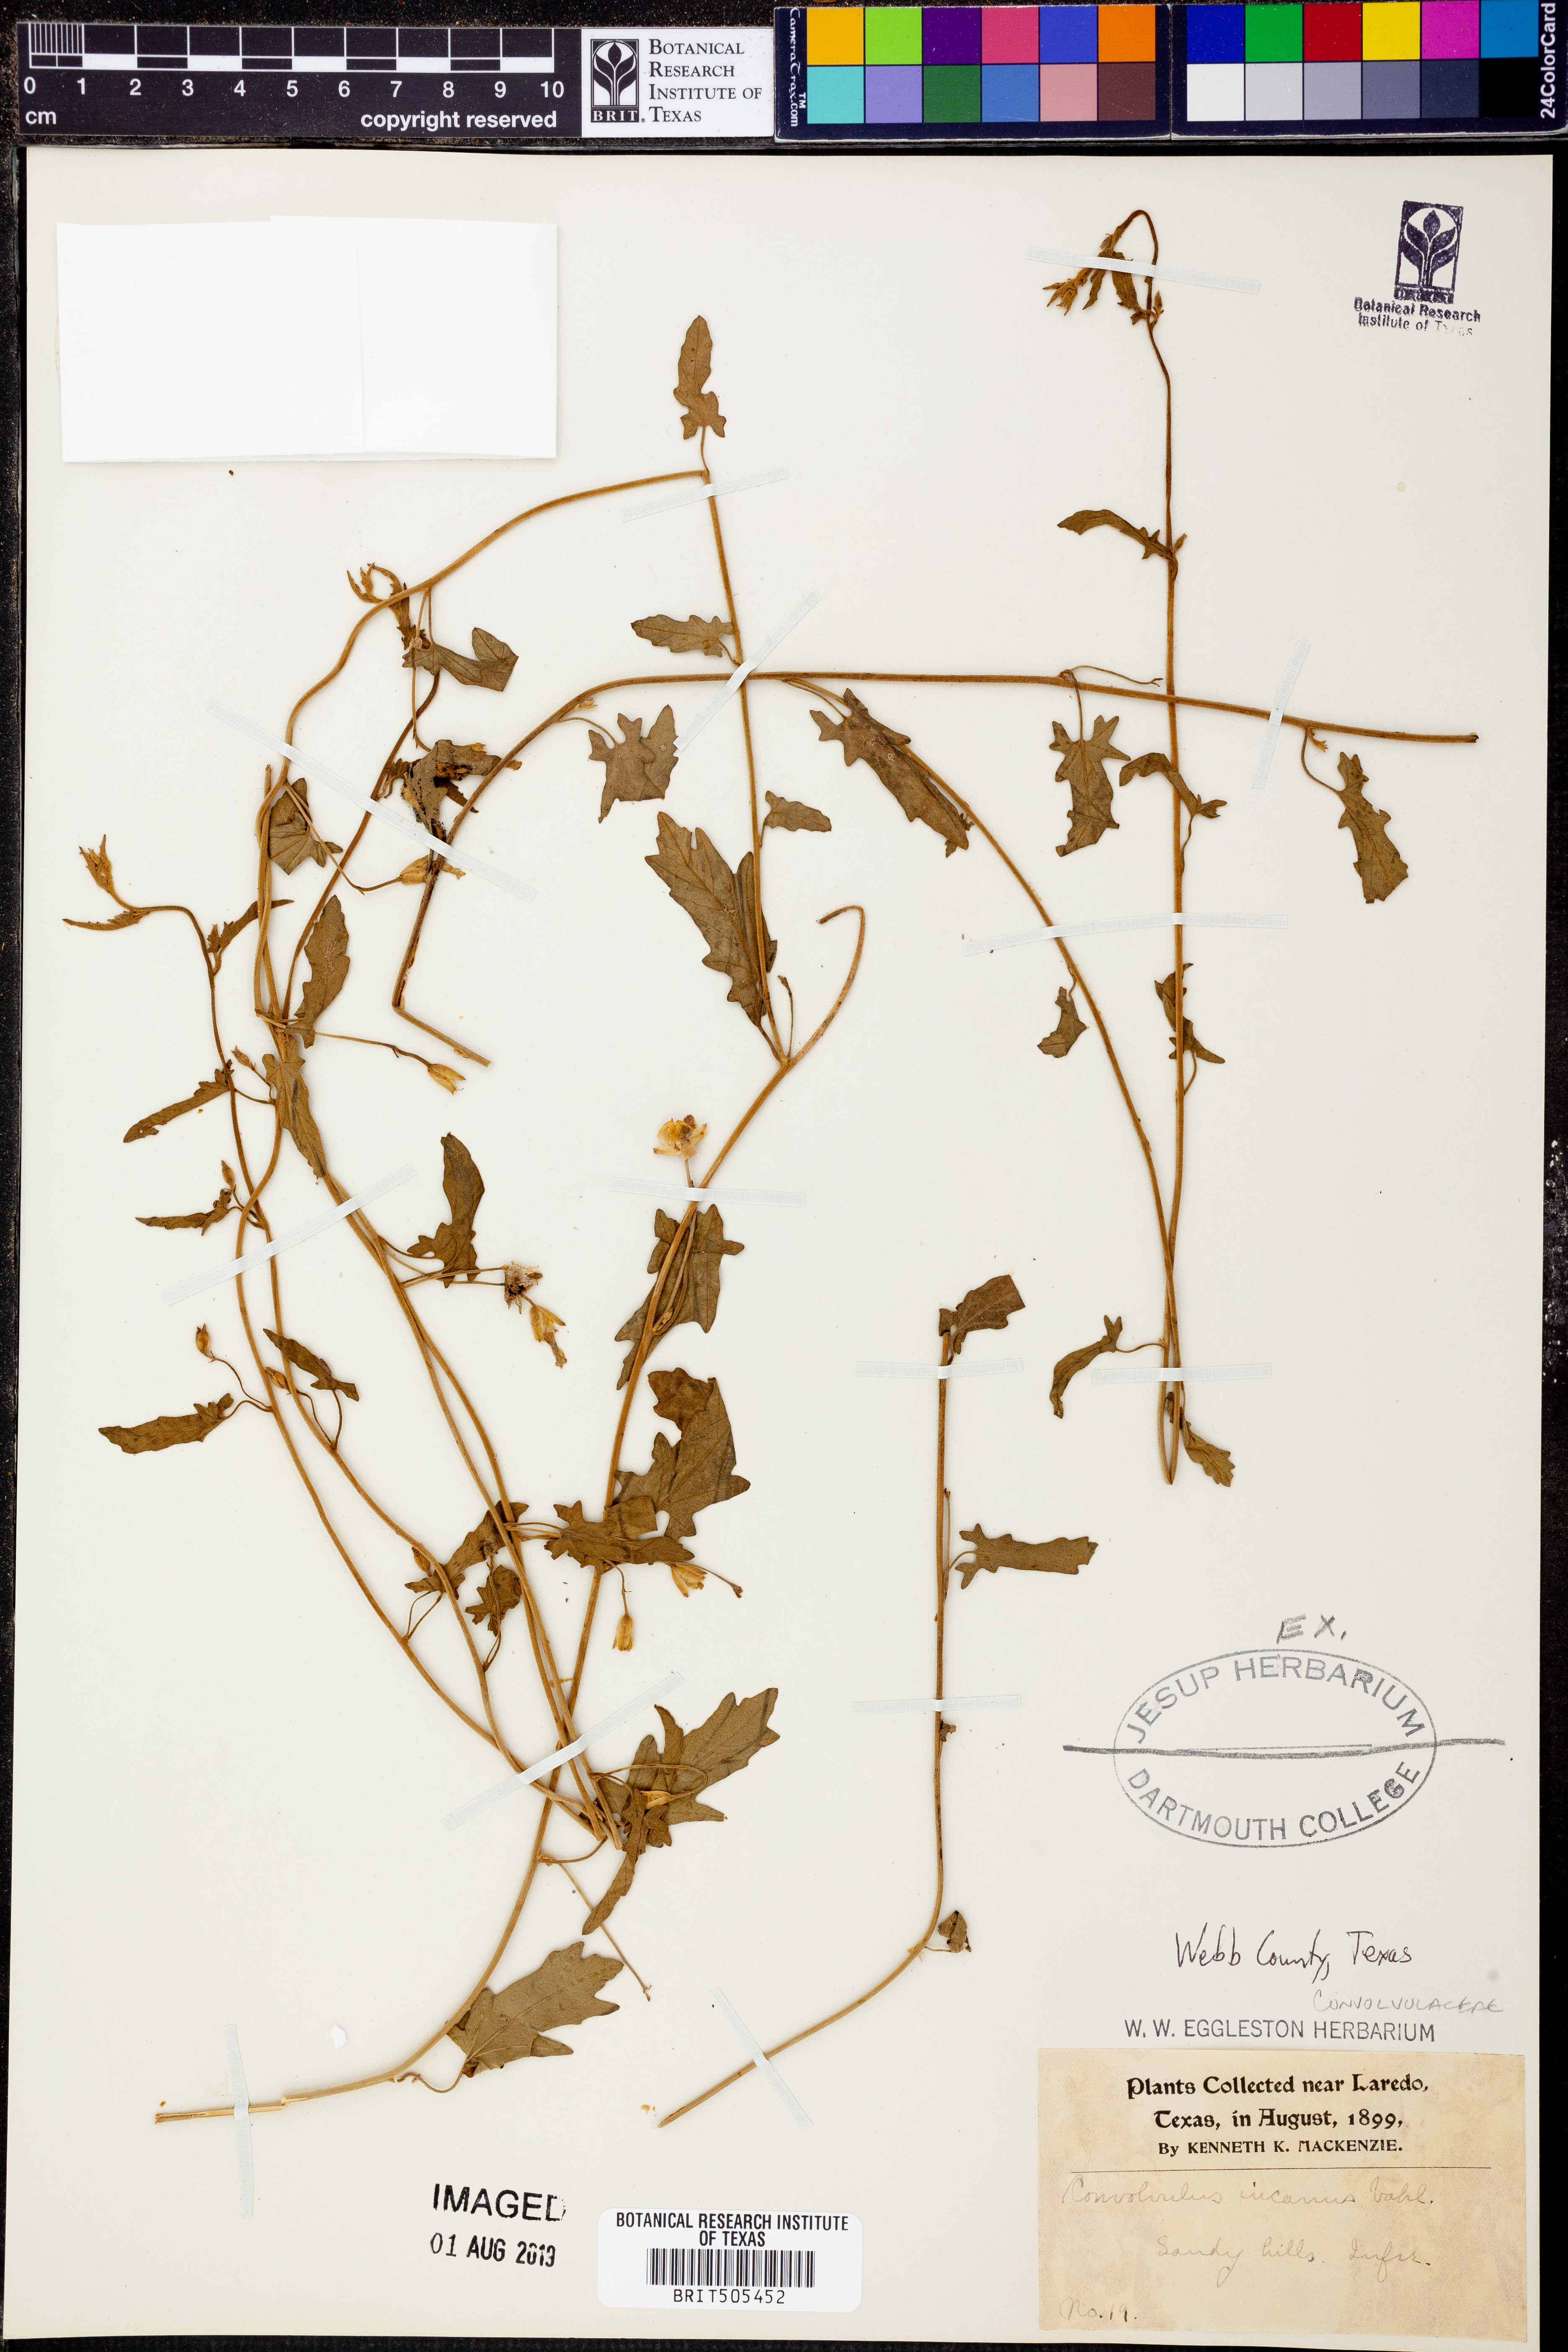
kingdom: Plantae
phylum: Tracheophyta
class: Magnoliopsida
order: Solanales
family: Convolvulaceae
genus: Convolvulus
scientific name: Convolvulus hermanniae
